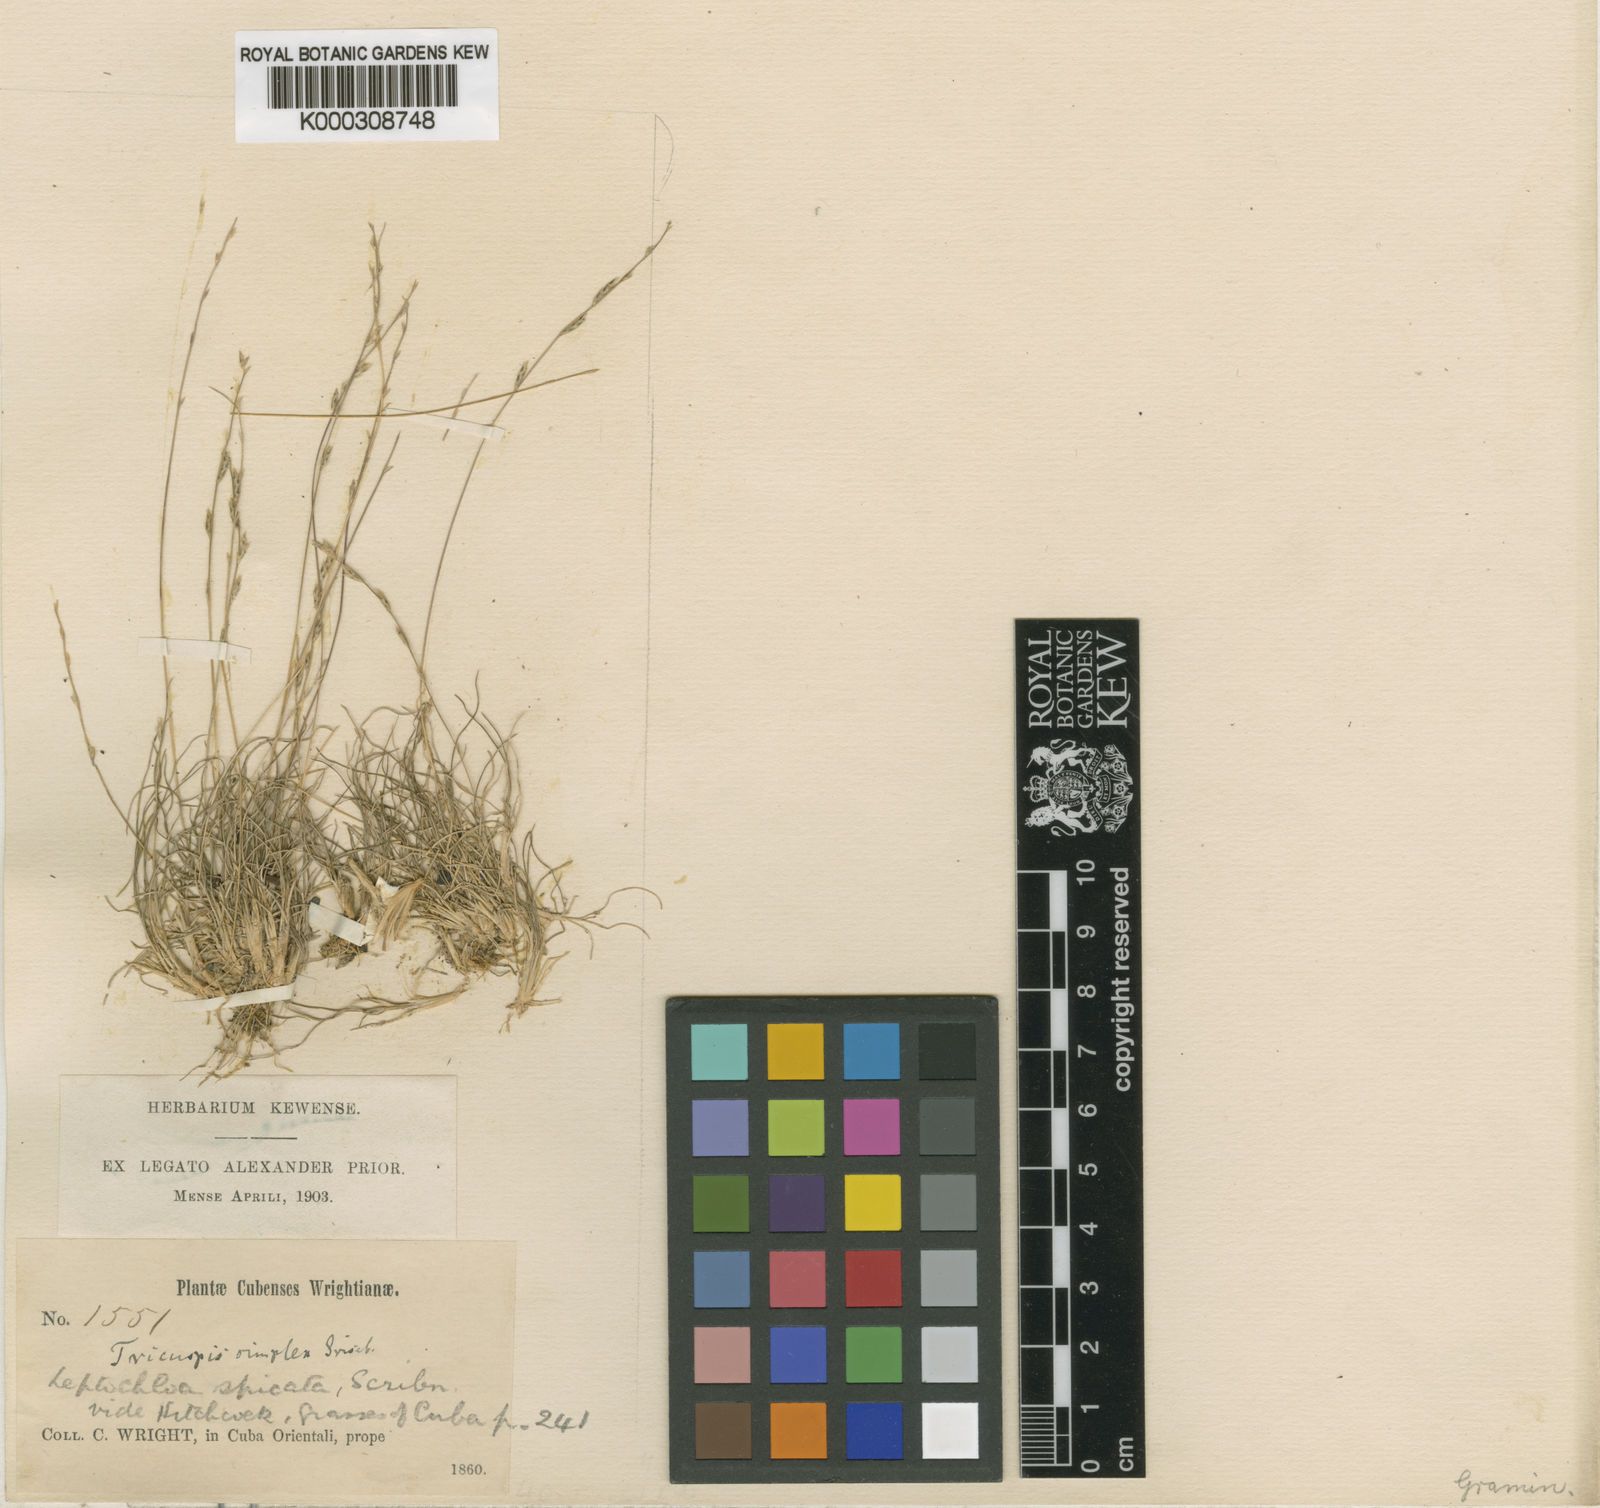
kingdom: Plantae
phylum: Tracheophyta
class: Liliopsida
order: Poales
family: Poaceae
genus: Tripogonella
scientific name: Tripogonella spicata
